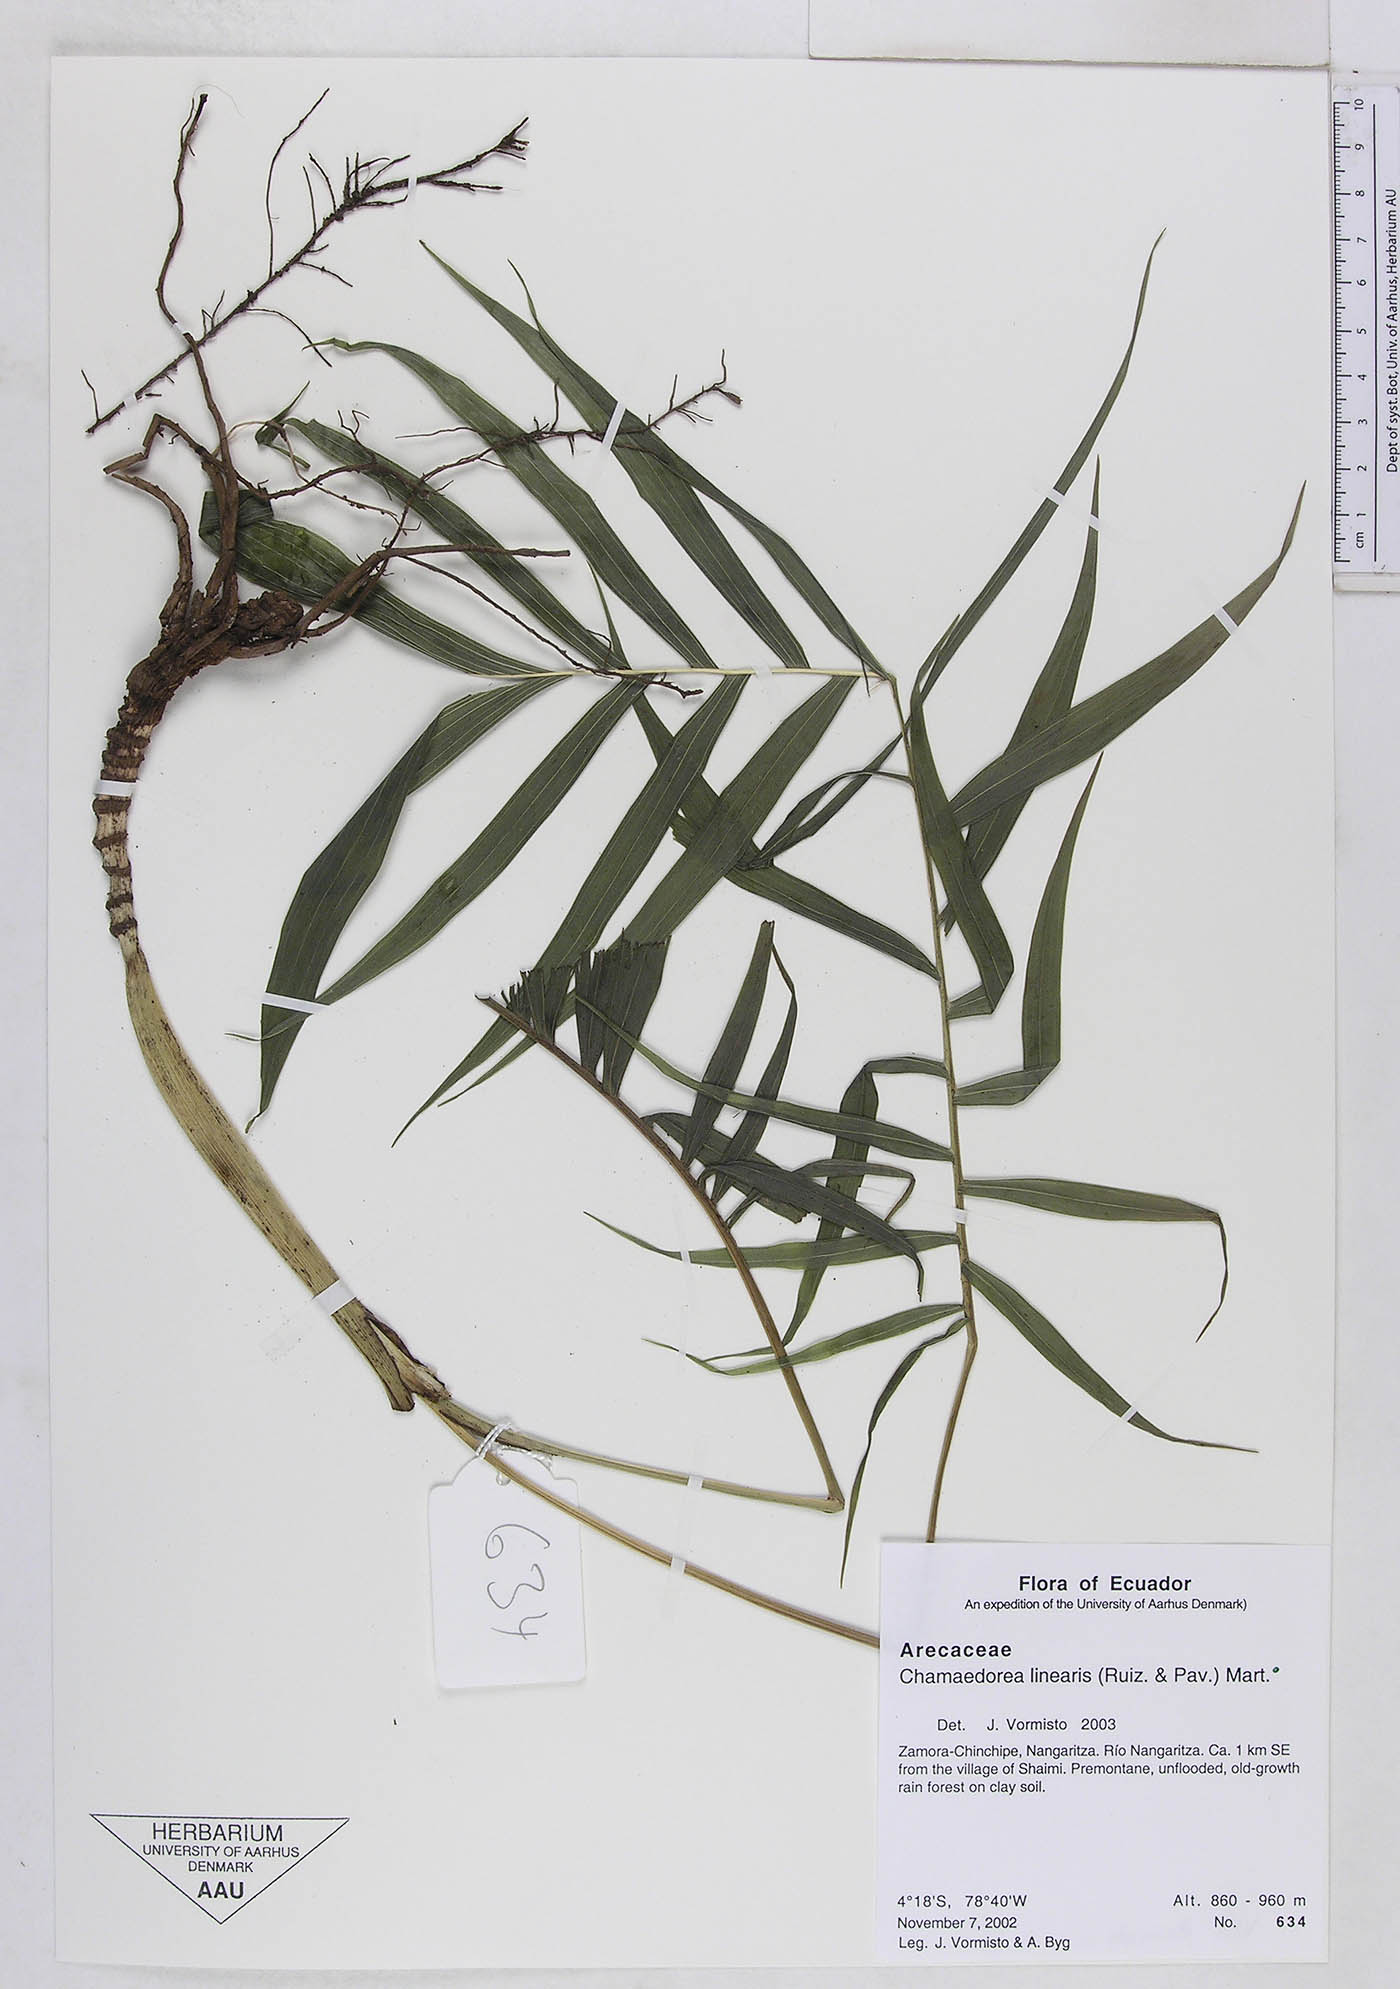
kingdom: Plantae
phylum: Tracheophyta
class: Liliopsida
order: Arecales
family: Arecaceae
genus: Chamaedorea
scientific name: Chamaedorea linearis
